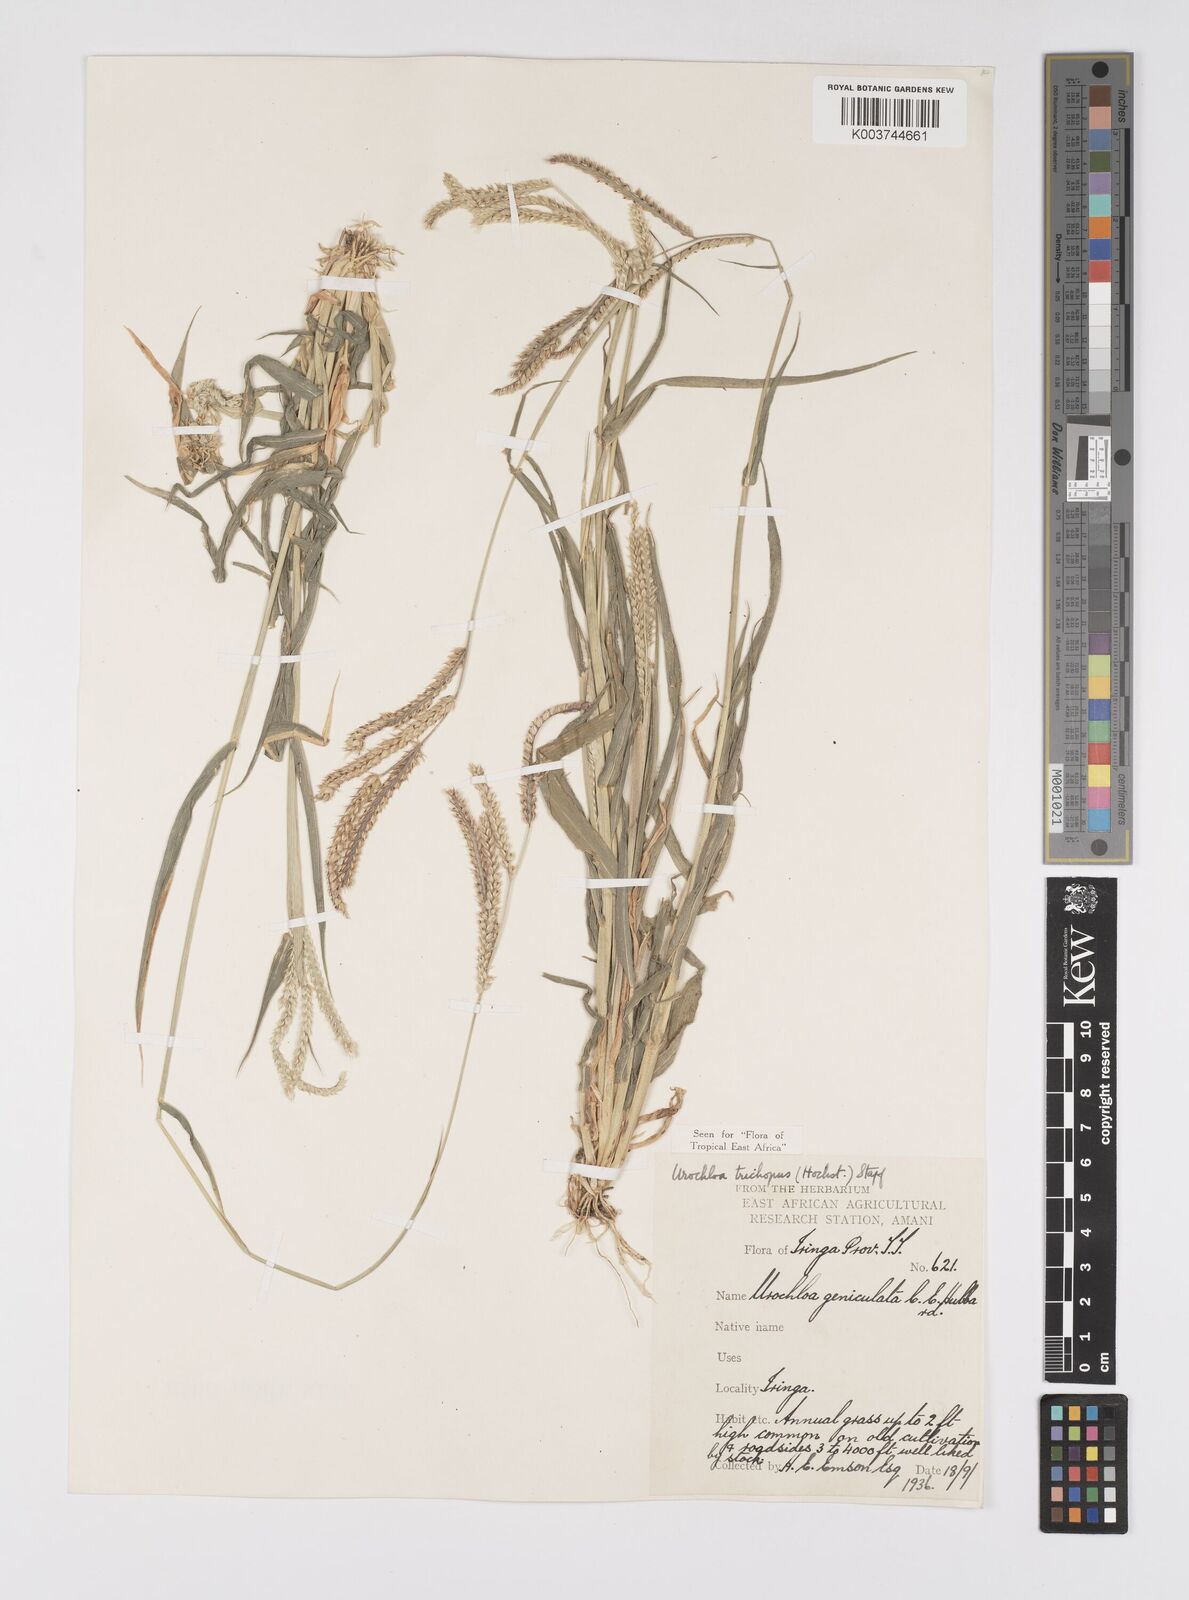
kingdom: Plantae
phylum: Tracheophyta
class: Liliopsida
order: Poales
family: Poaceae
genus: Urochloa
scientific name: Urochloa trichopus
